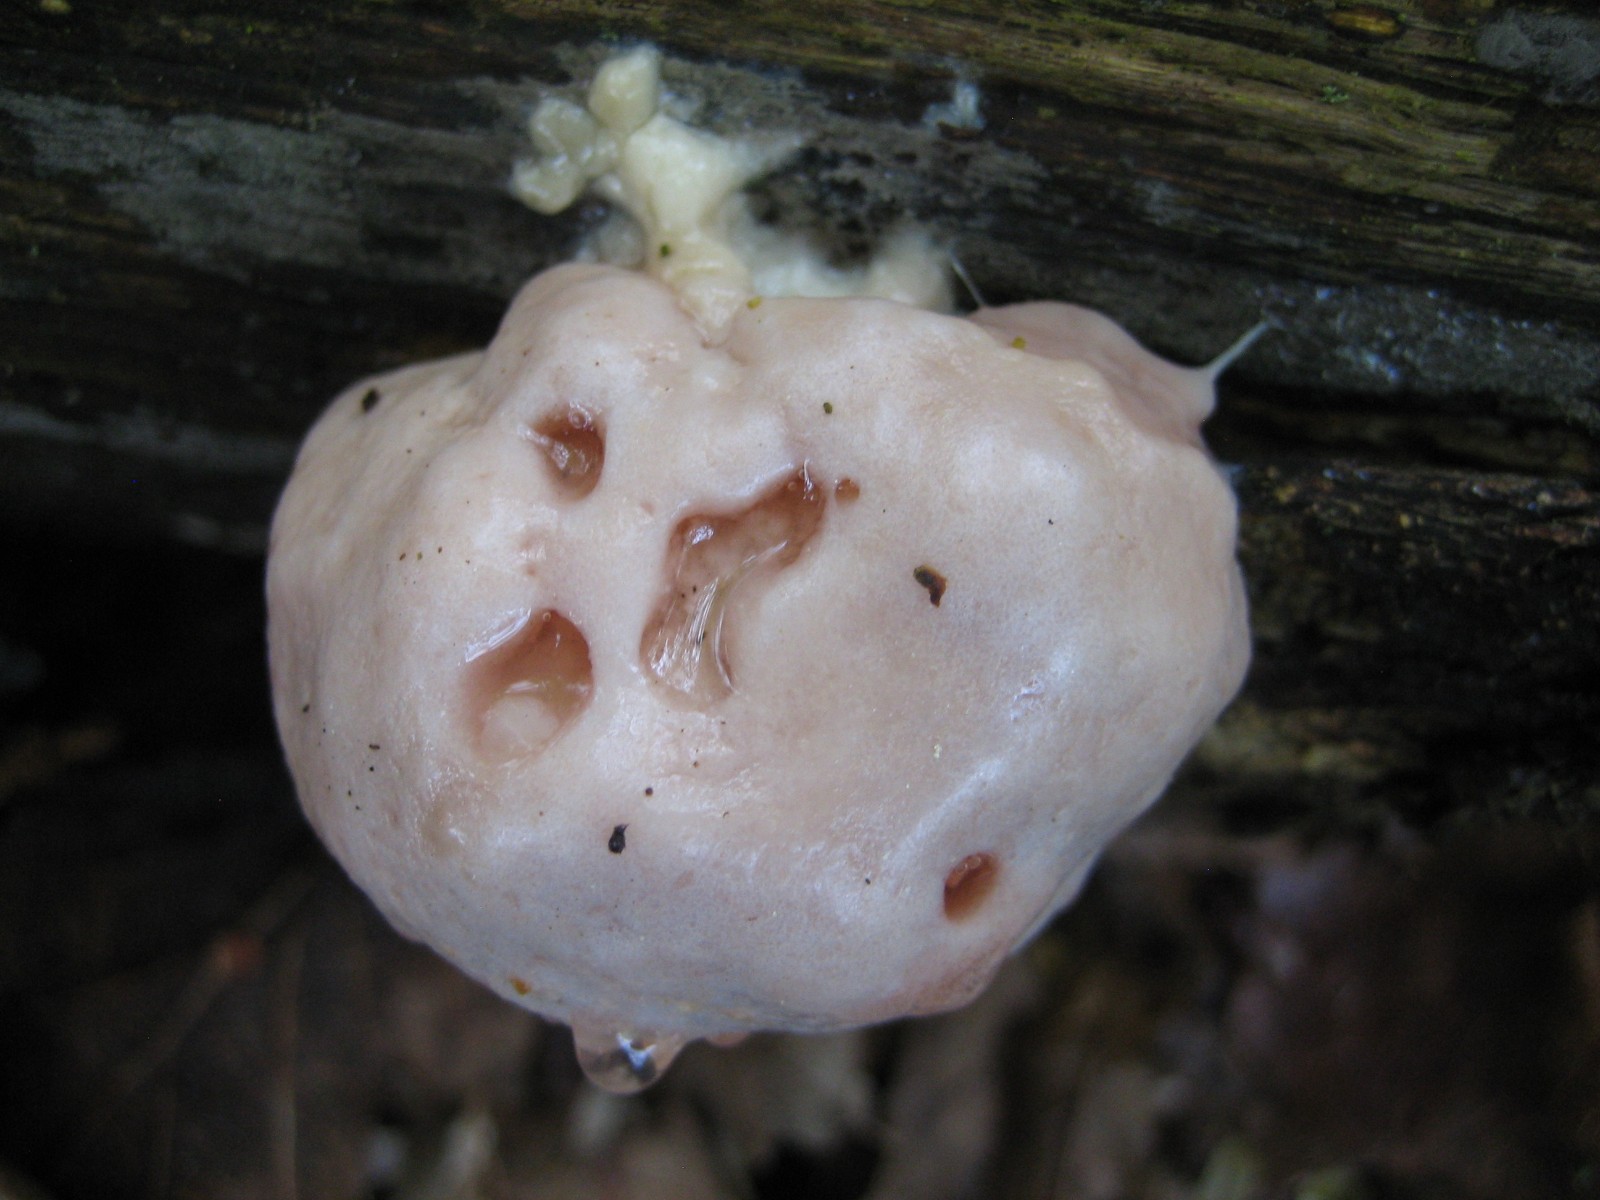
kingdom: Protozoa
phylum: Mycetozoa
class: Myxomycetes
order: Cribrariales
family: Tubiferaceae
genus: Reticularia
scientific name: Reticularia lycoperdon
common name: skinnende støvpude
